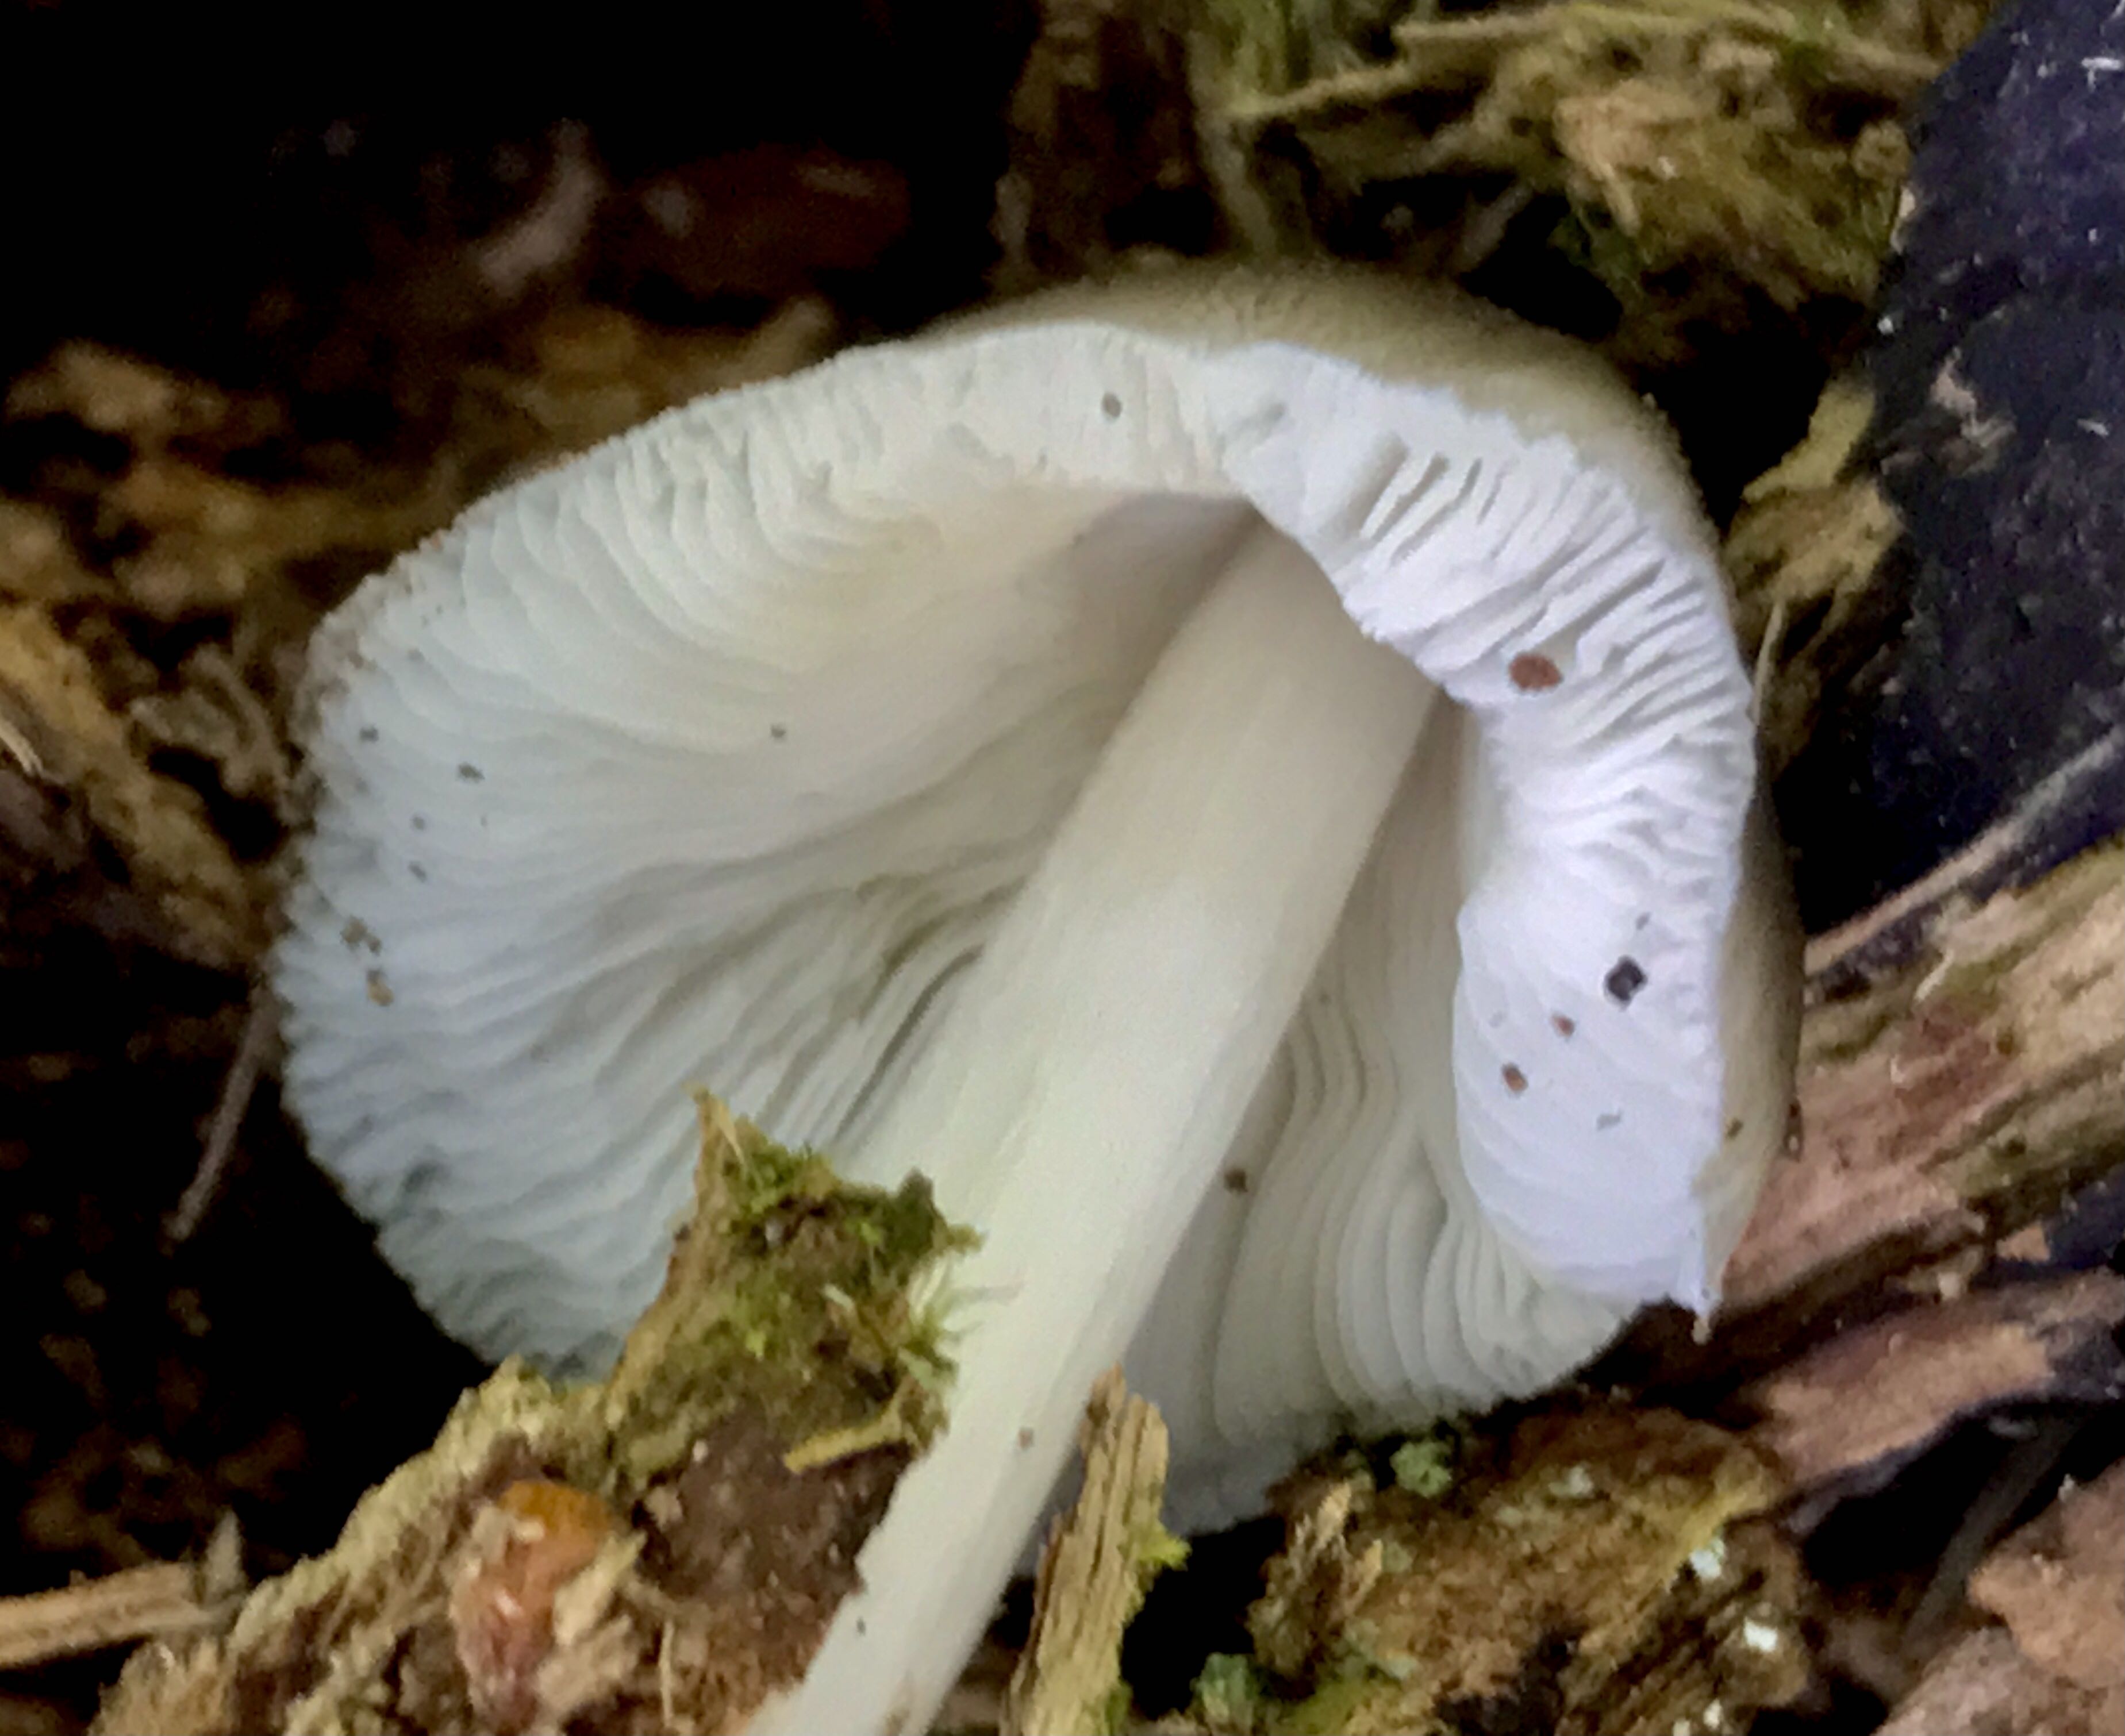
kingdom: Fungi
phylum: Basidiomycota
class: Agaricomycetes
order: Agaricales
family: Pluteaceae
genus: Pluteus
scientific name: Pluteus salicinus
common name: stiv skærmhat
